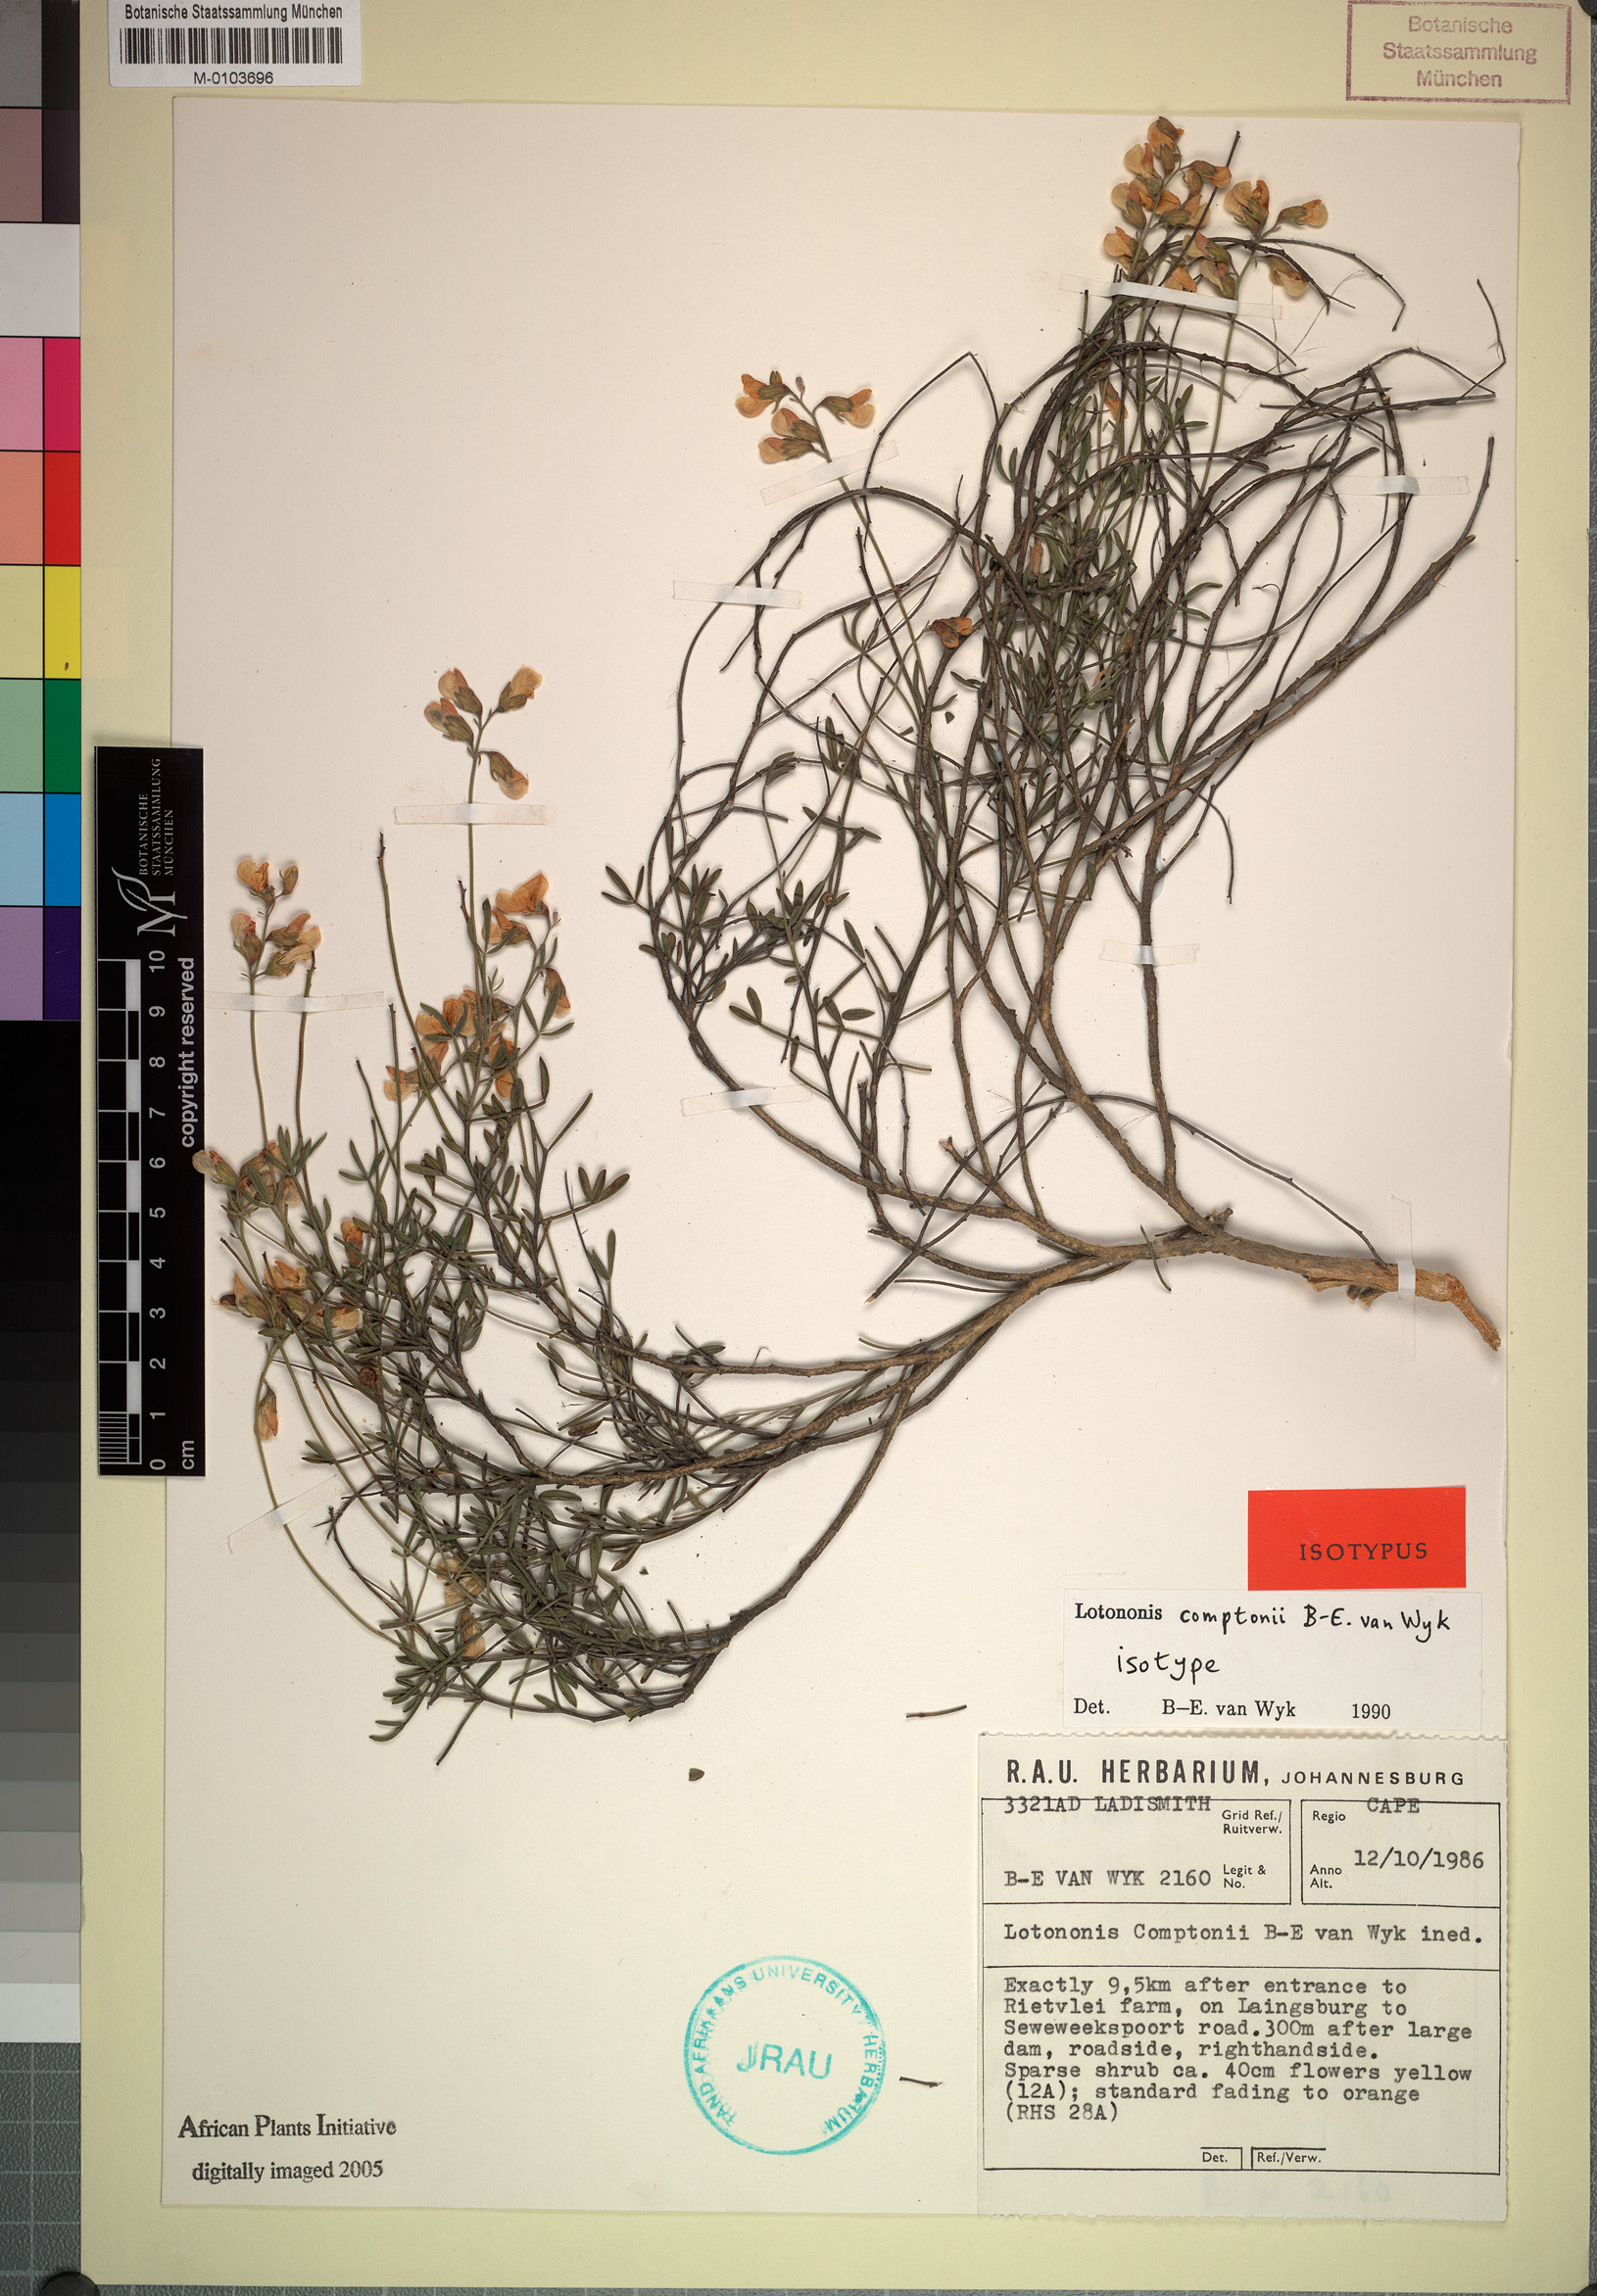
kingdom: Plantae
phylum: Tracheophyta
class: Magnoliopsida
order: Fabales
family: Fabaceae
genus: Lotononis
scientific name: Lotononis comptonii
